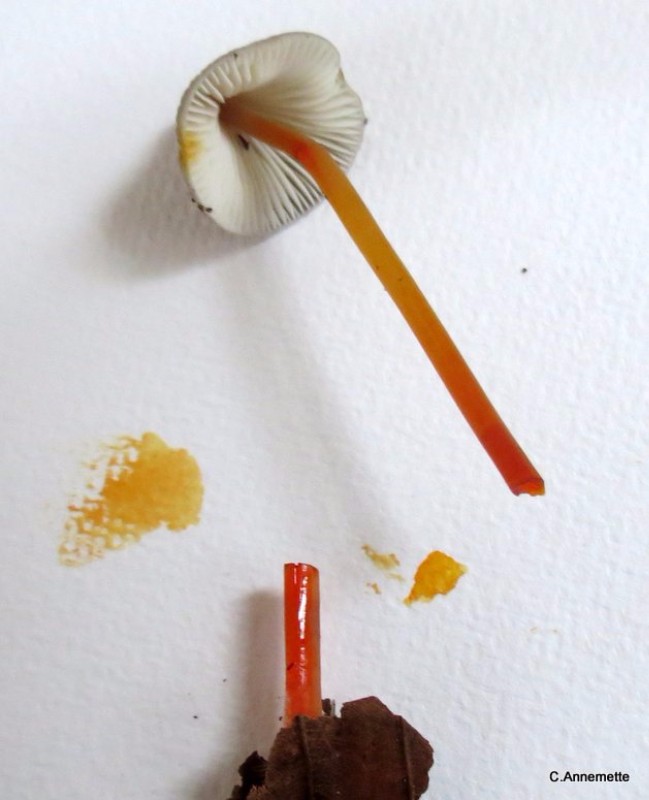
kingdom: Fungi
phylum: Basidiomycota
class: Agaricomycetes
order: Agaricales
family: Mycenaceae
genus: Mycena
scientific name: Mycena crocata
